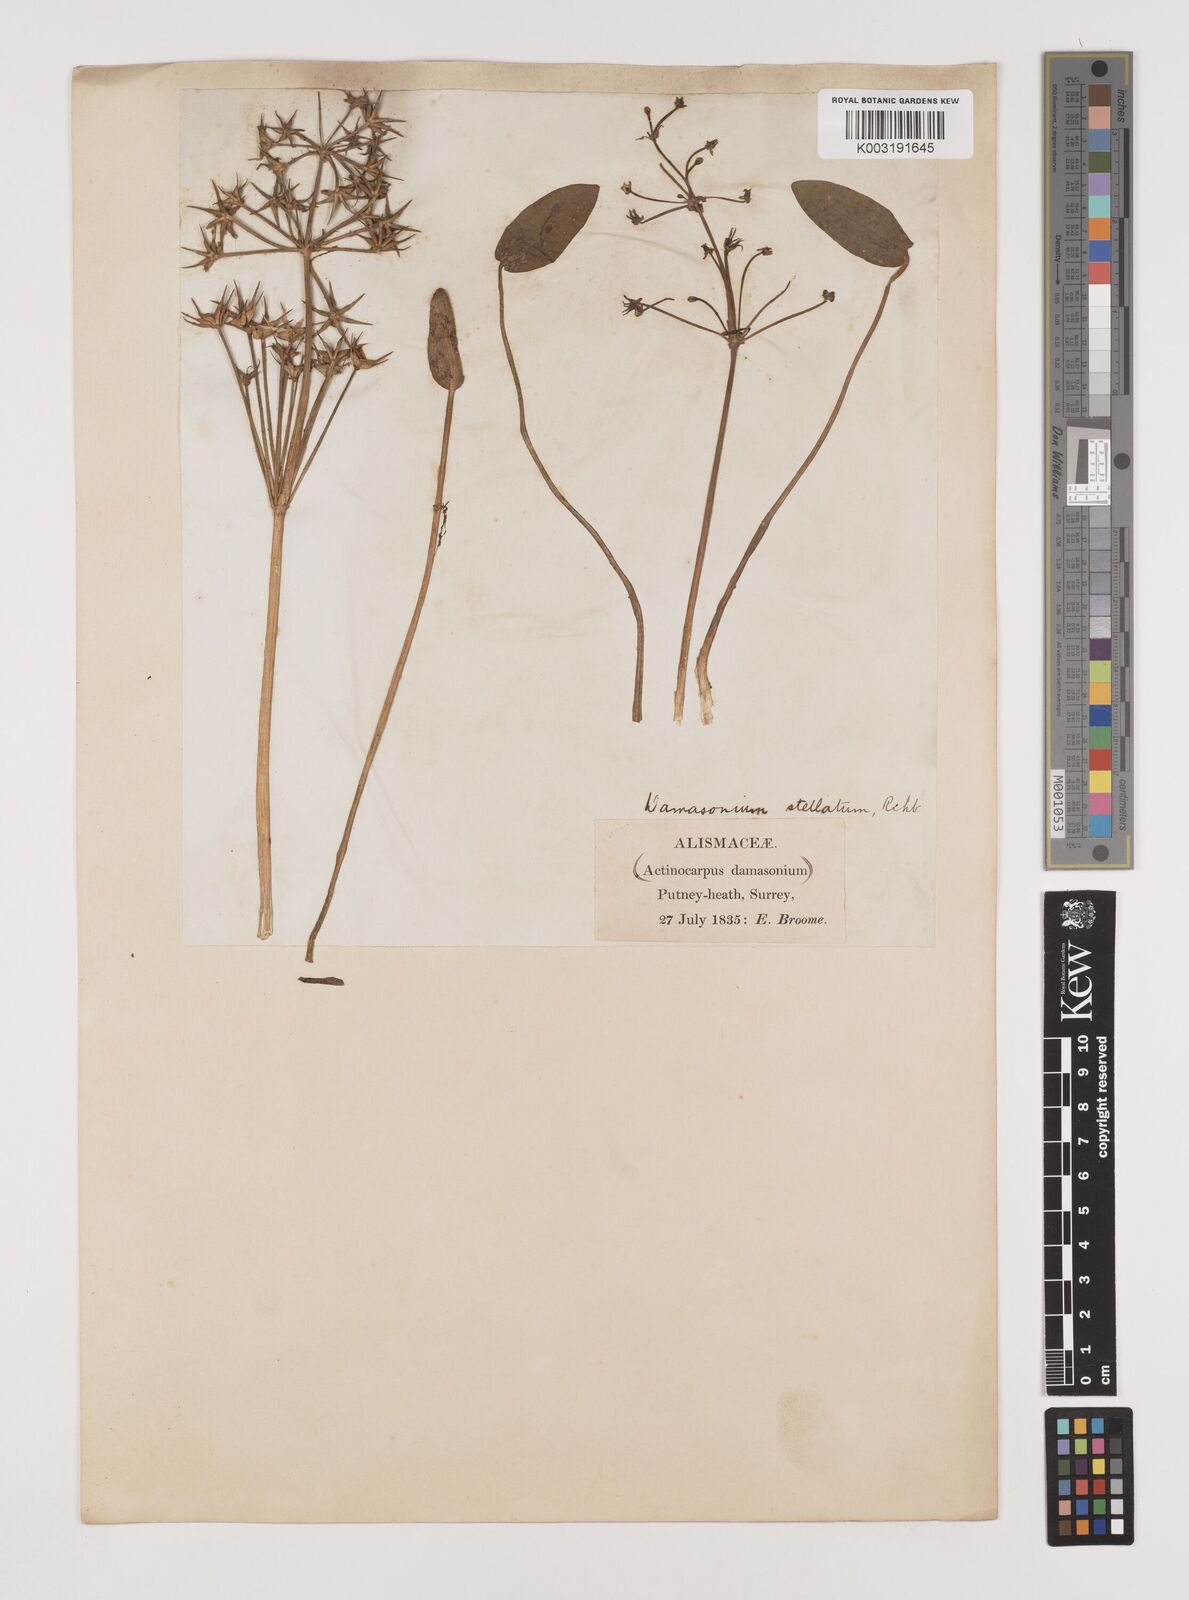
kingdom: Plantae
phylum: Tracheophyta
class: Liliopsida
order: Alismatales
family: Alismataceae
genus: Damasonium
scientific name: Damasonium alisma
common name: Starfruit
